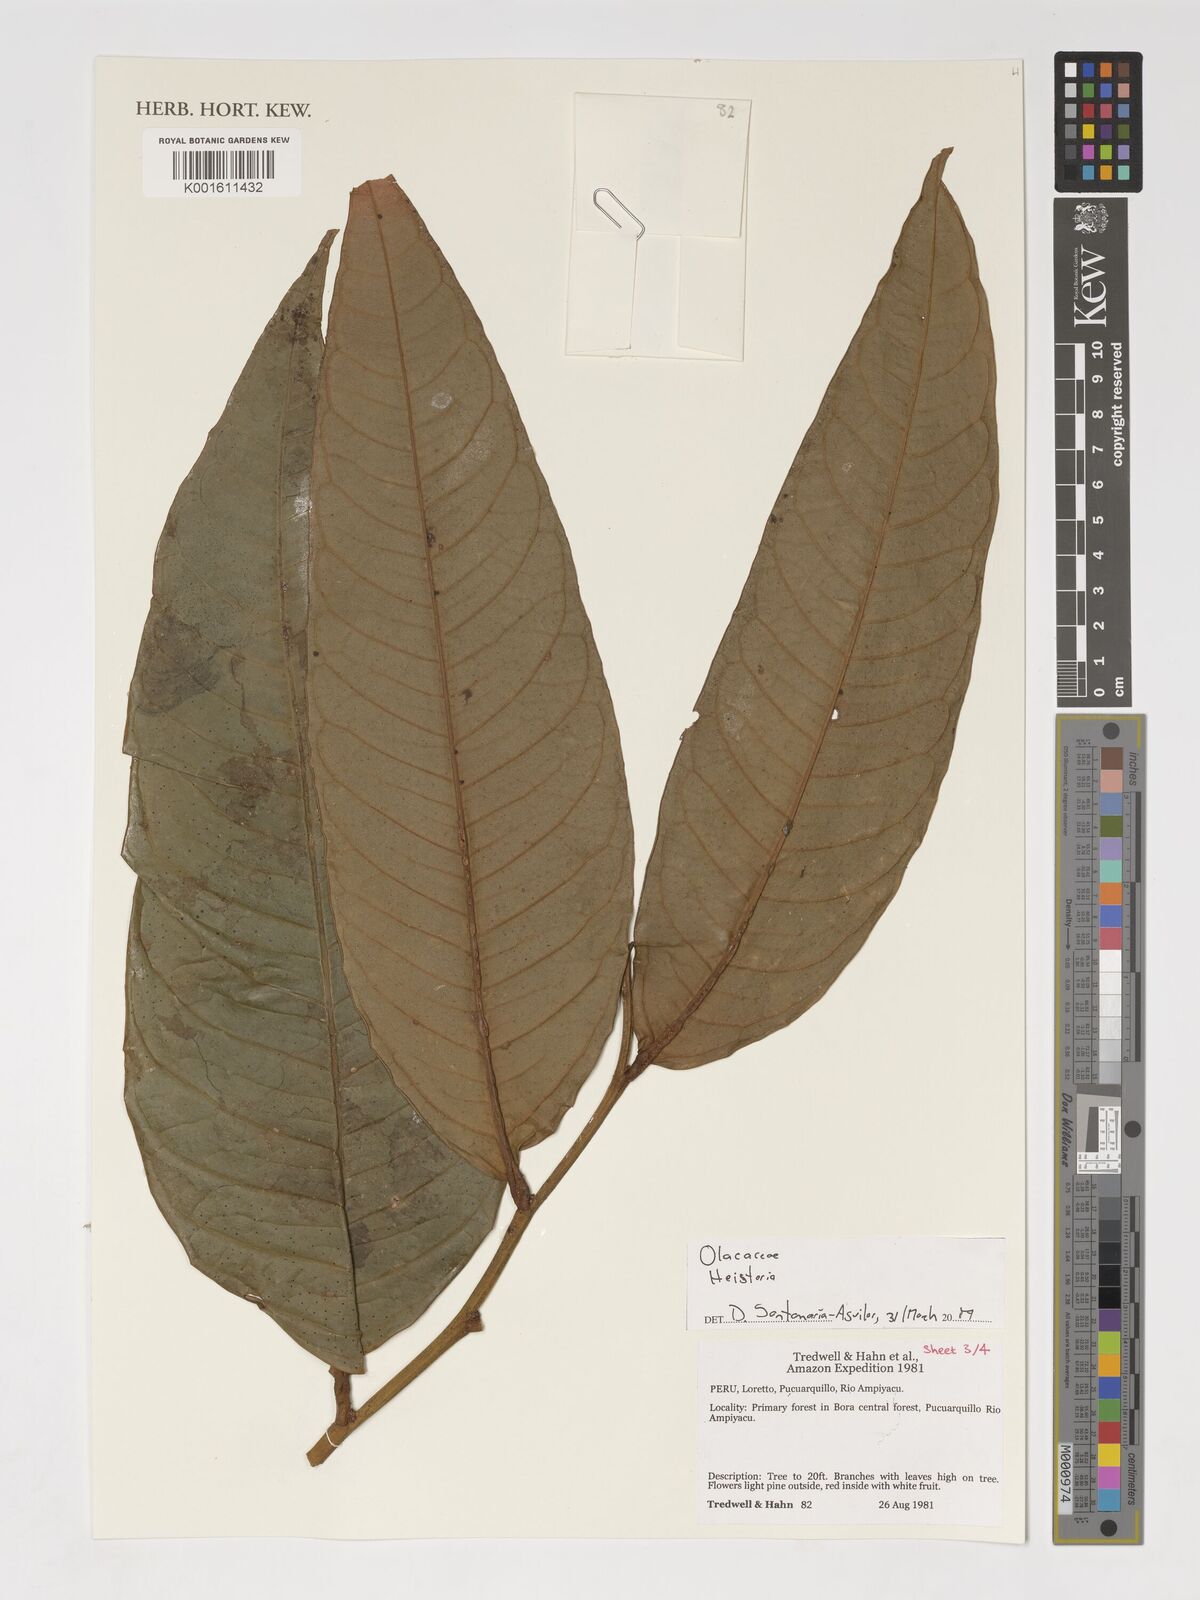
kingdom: Plantae
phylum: Tracheophyta
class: Magnoliopsida
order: Santalales
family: Erythropalaceae
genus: Heisteria
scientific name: Heisteria
